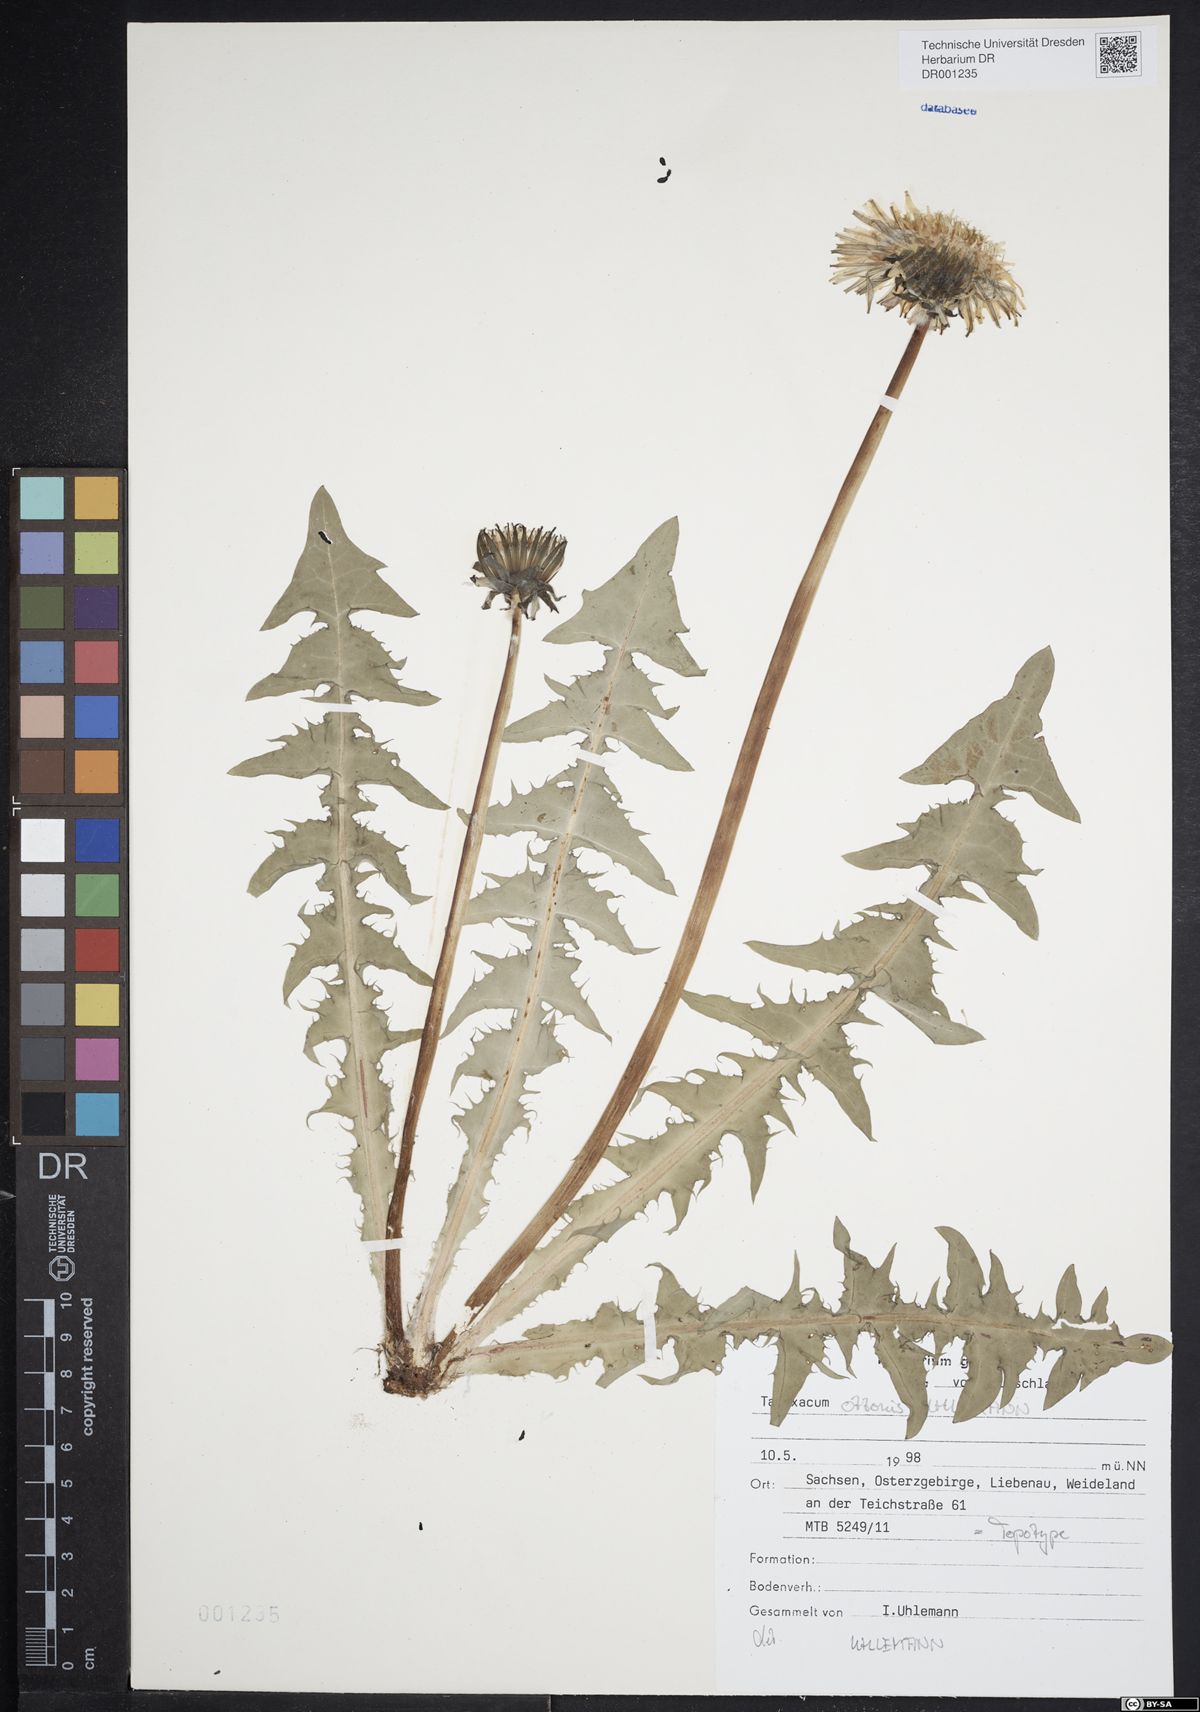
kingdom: Plantae
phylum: Tracheophyta
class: Magnoliopsida
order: Asterales
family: Asteraceae
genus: Taraxacum
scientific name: Taraxacum ottonis
